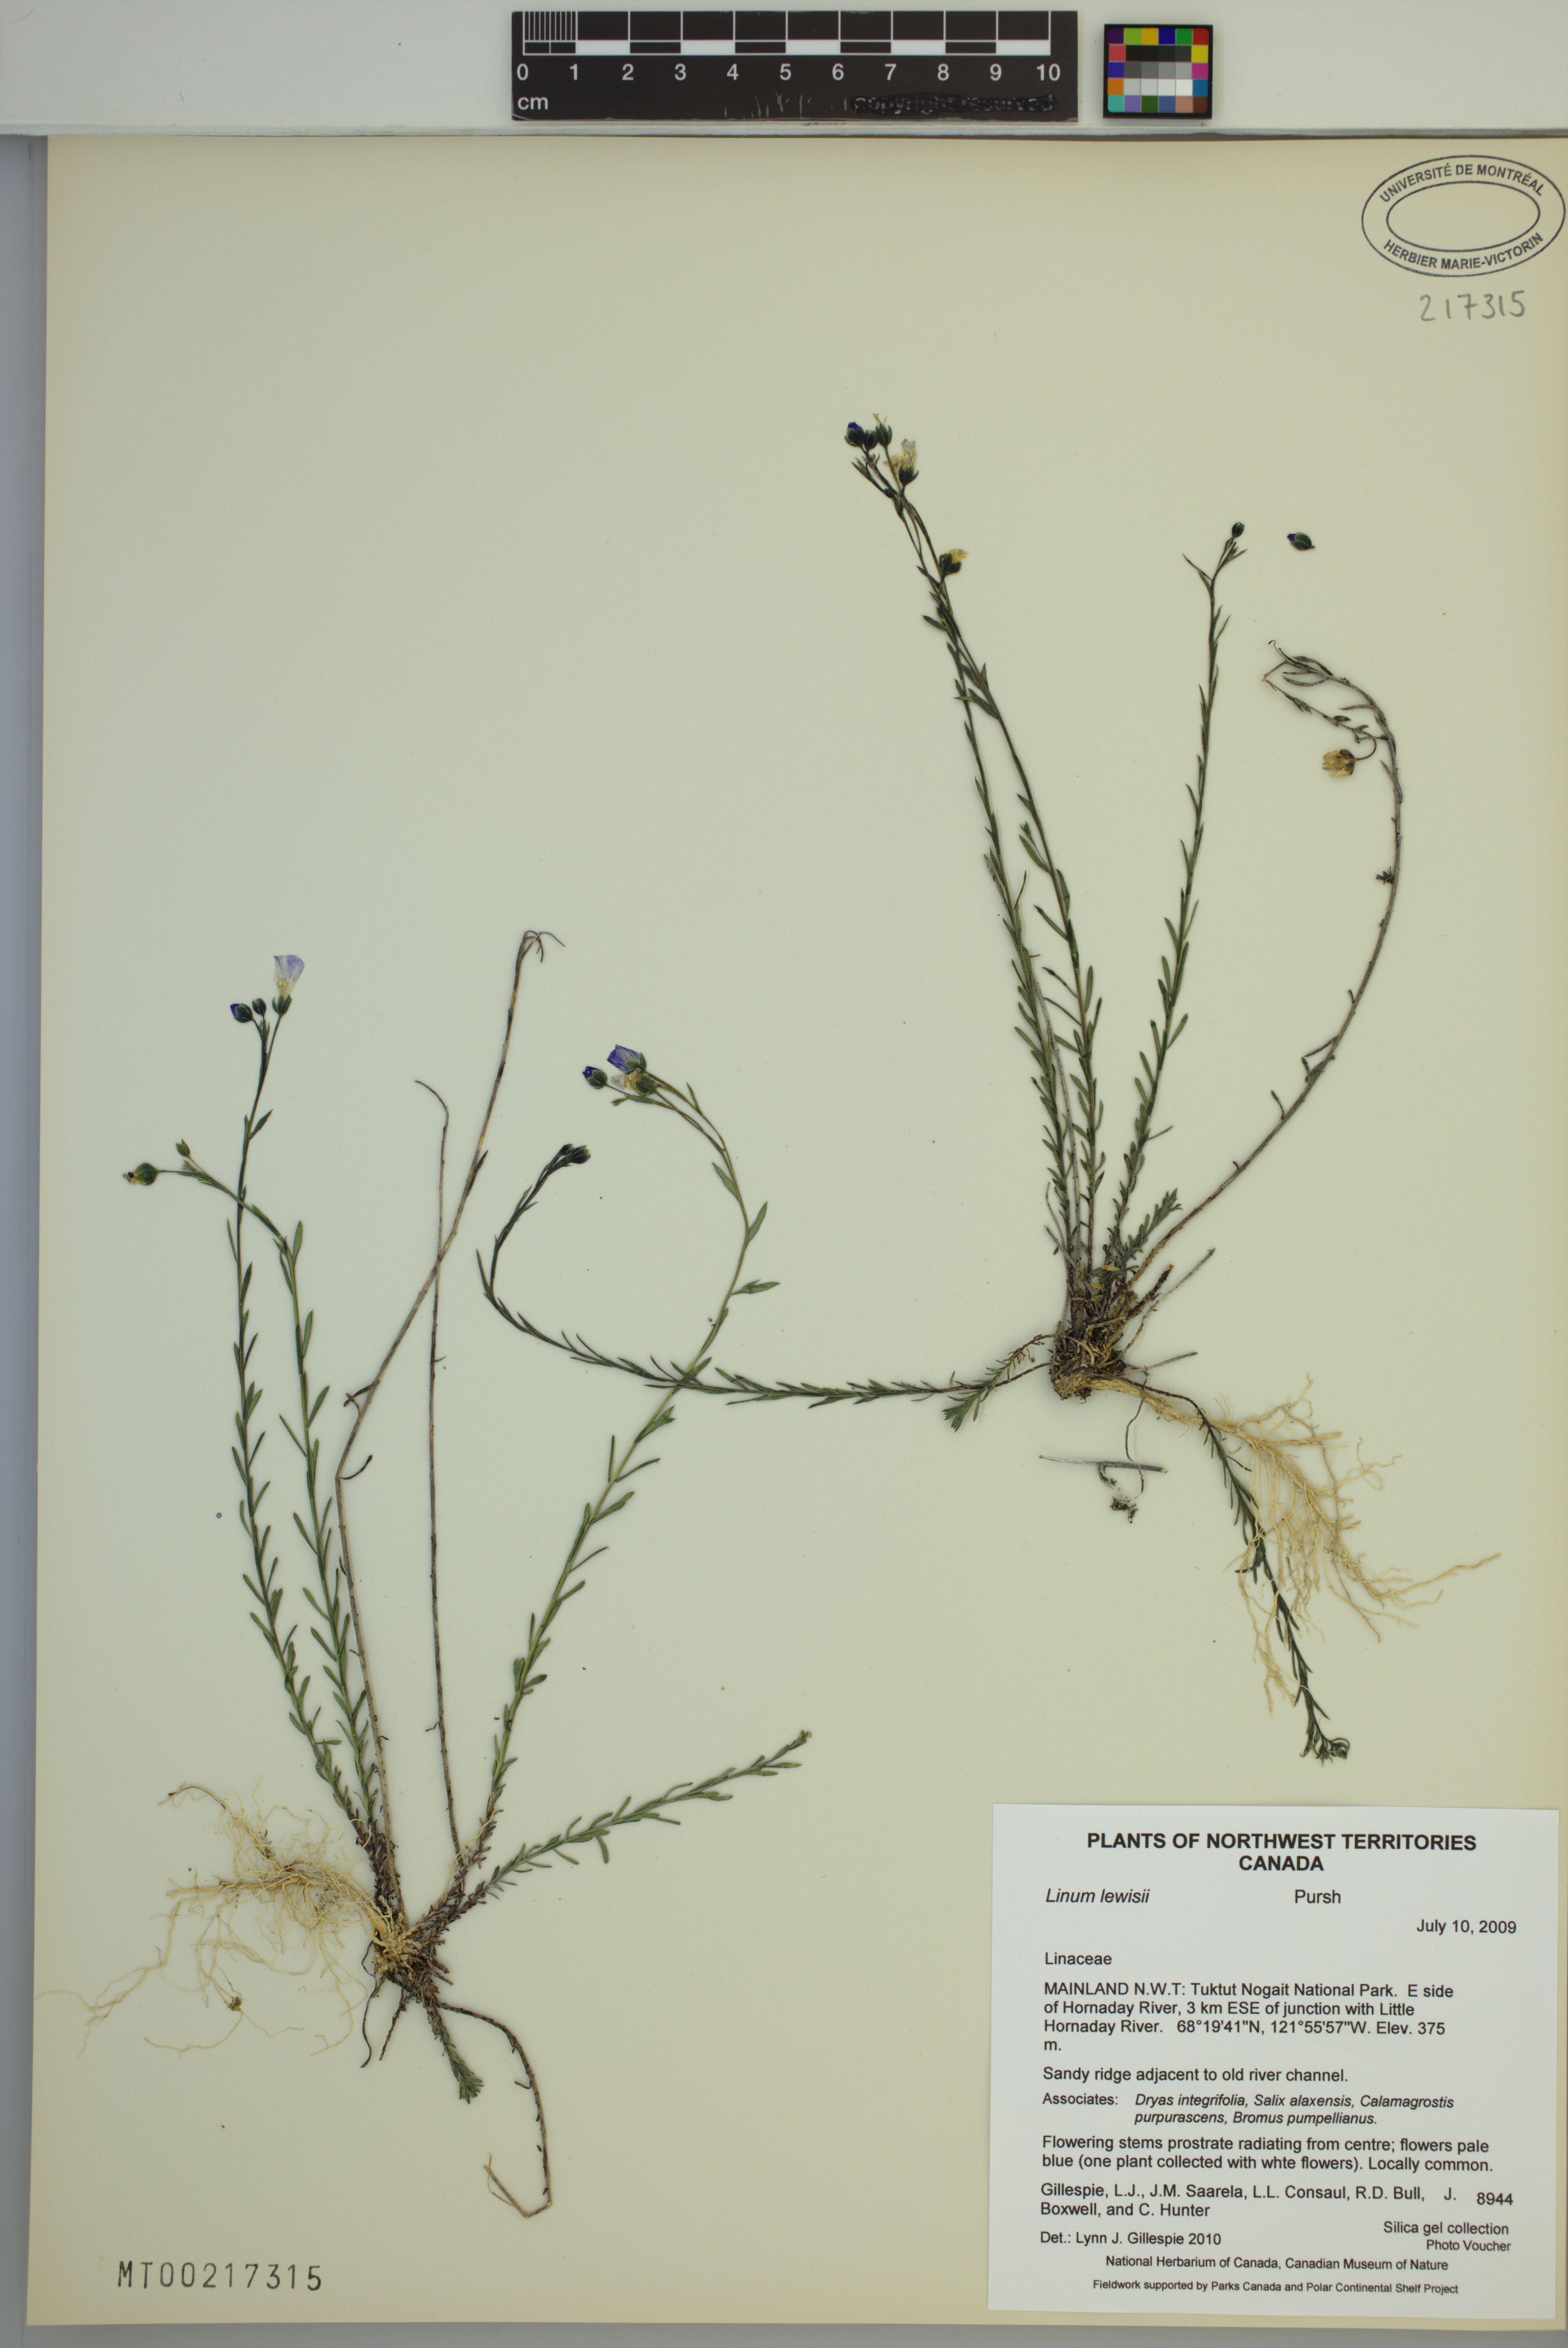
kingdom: Plantae
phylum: Tracheophyta
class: Magnoliopsida
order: Malpighiales
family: Linaceae
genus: Linum
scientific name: Linum lewisii
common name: Prairie flax
